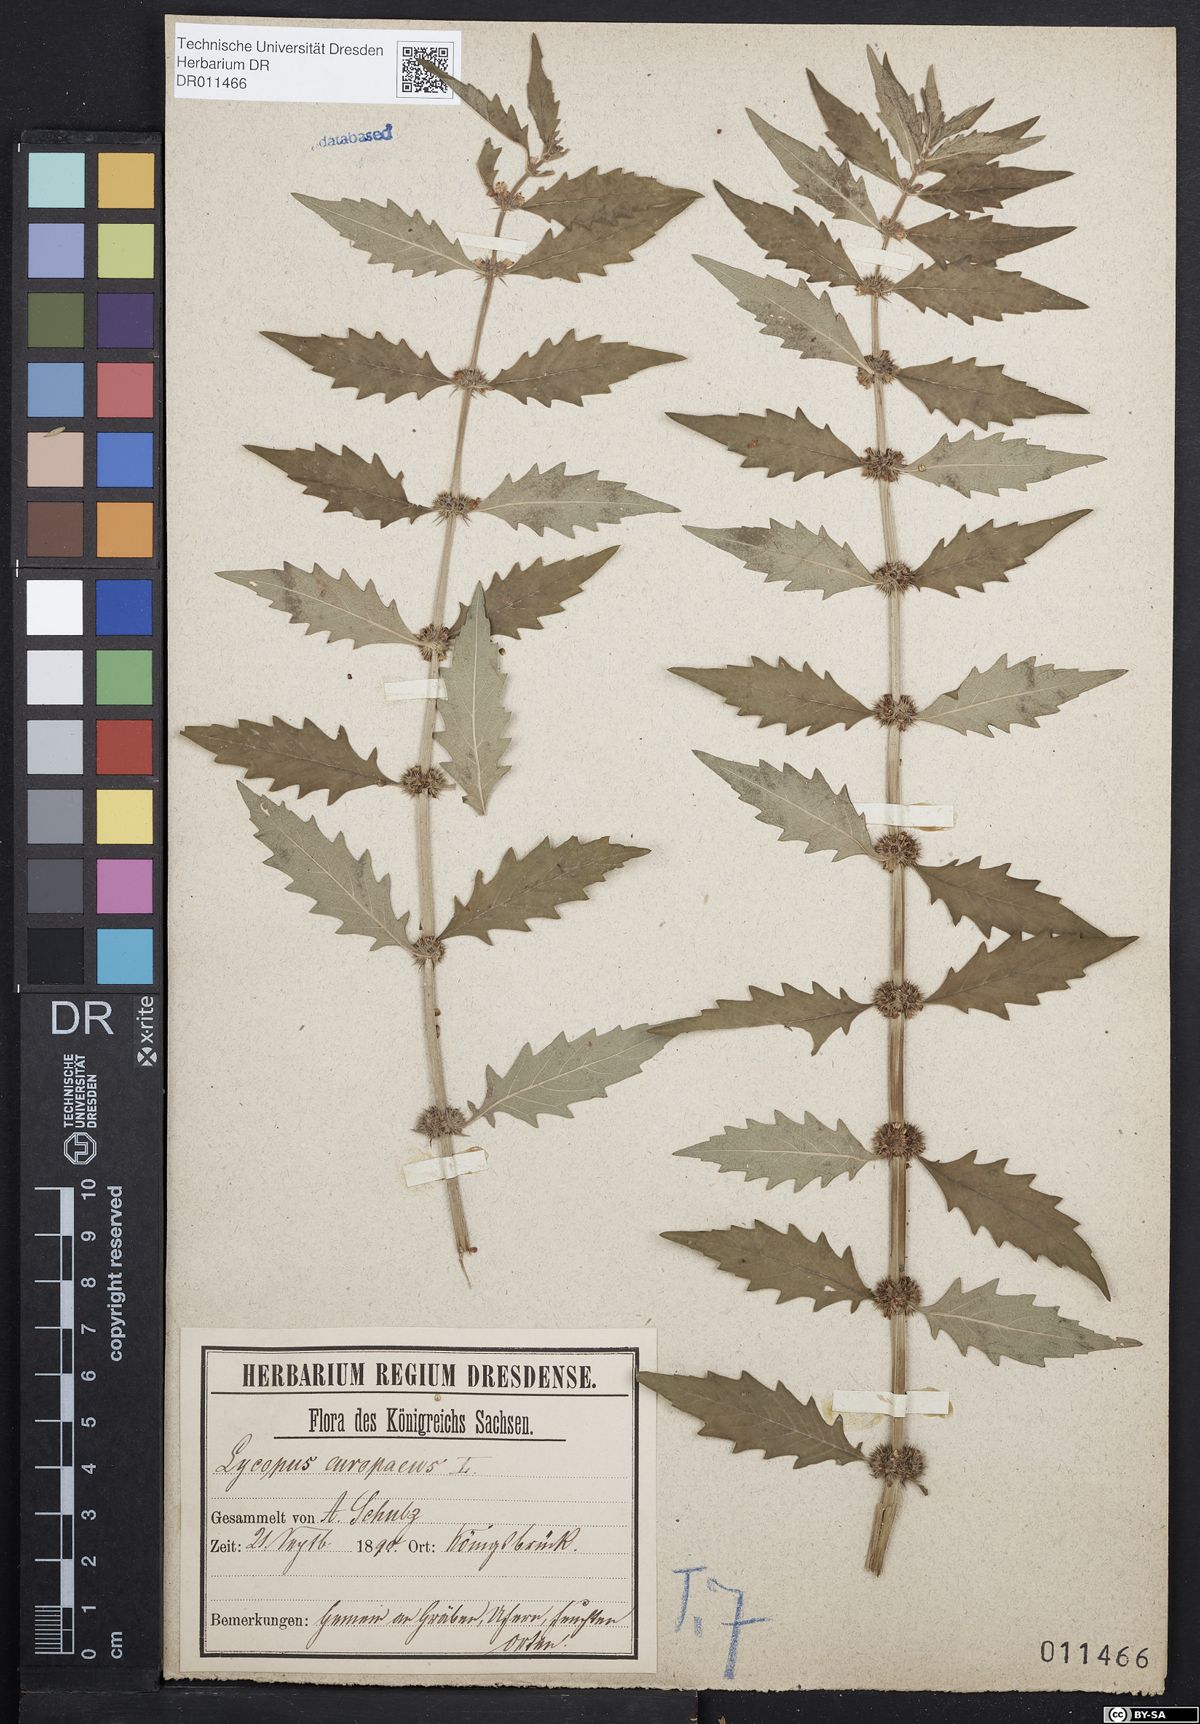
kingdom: Plantae
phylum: Tracheophyta
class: Magnoliopsida
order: Lamiales
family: Lamiaceae
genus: Lycopus
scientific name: Lycopus europaeus
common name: European bugleweed
